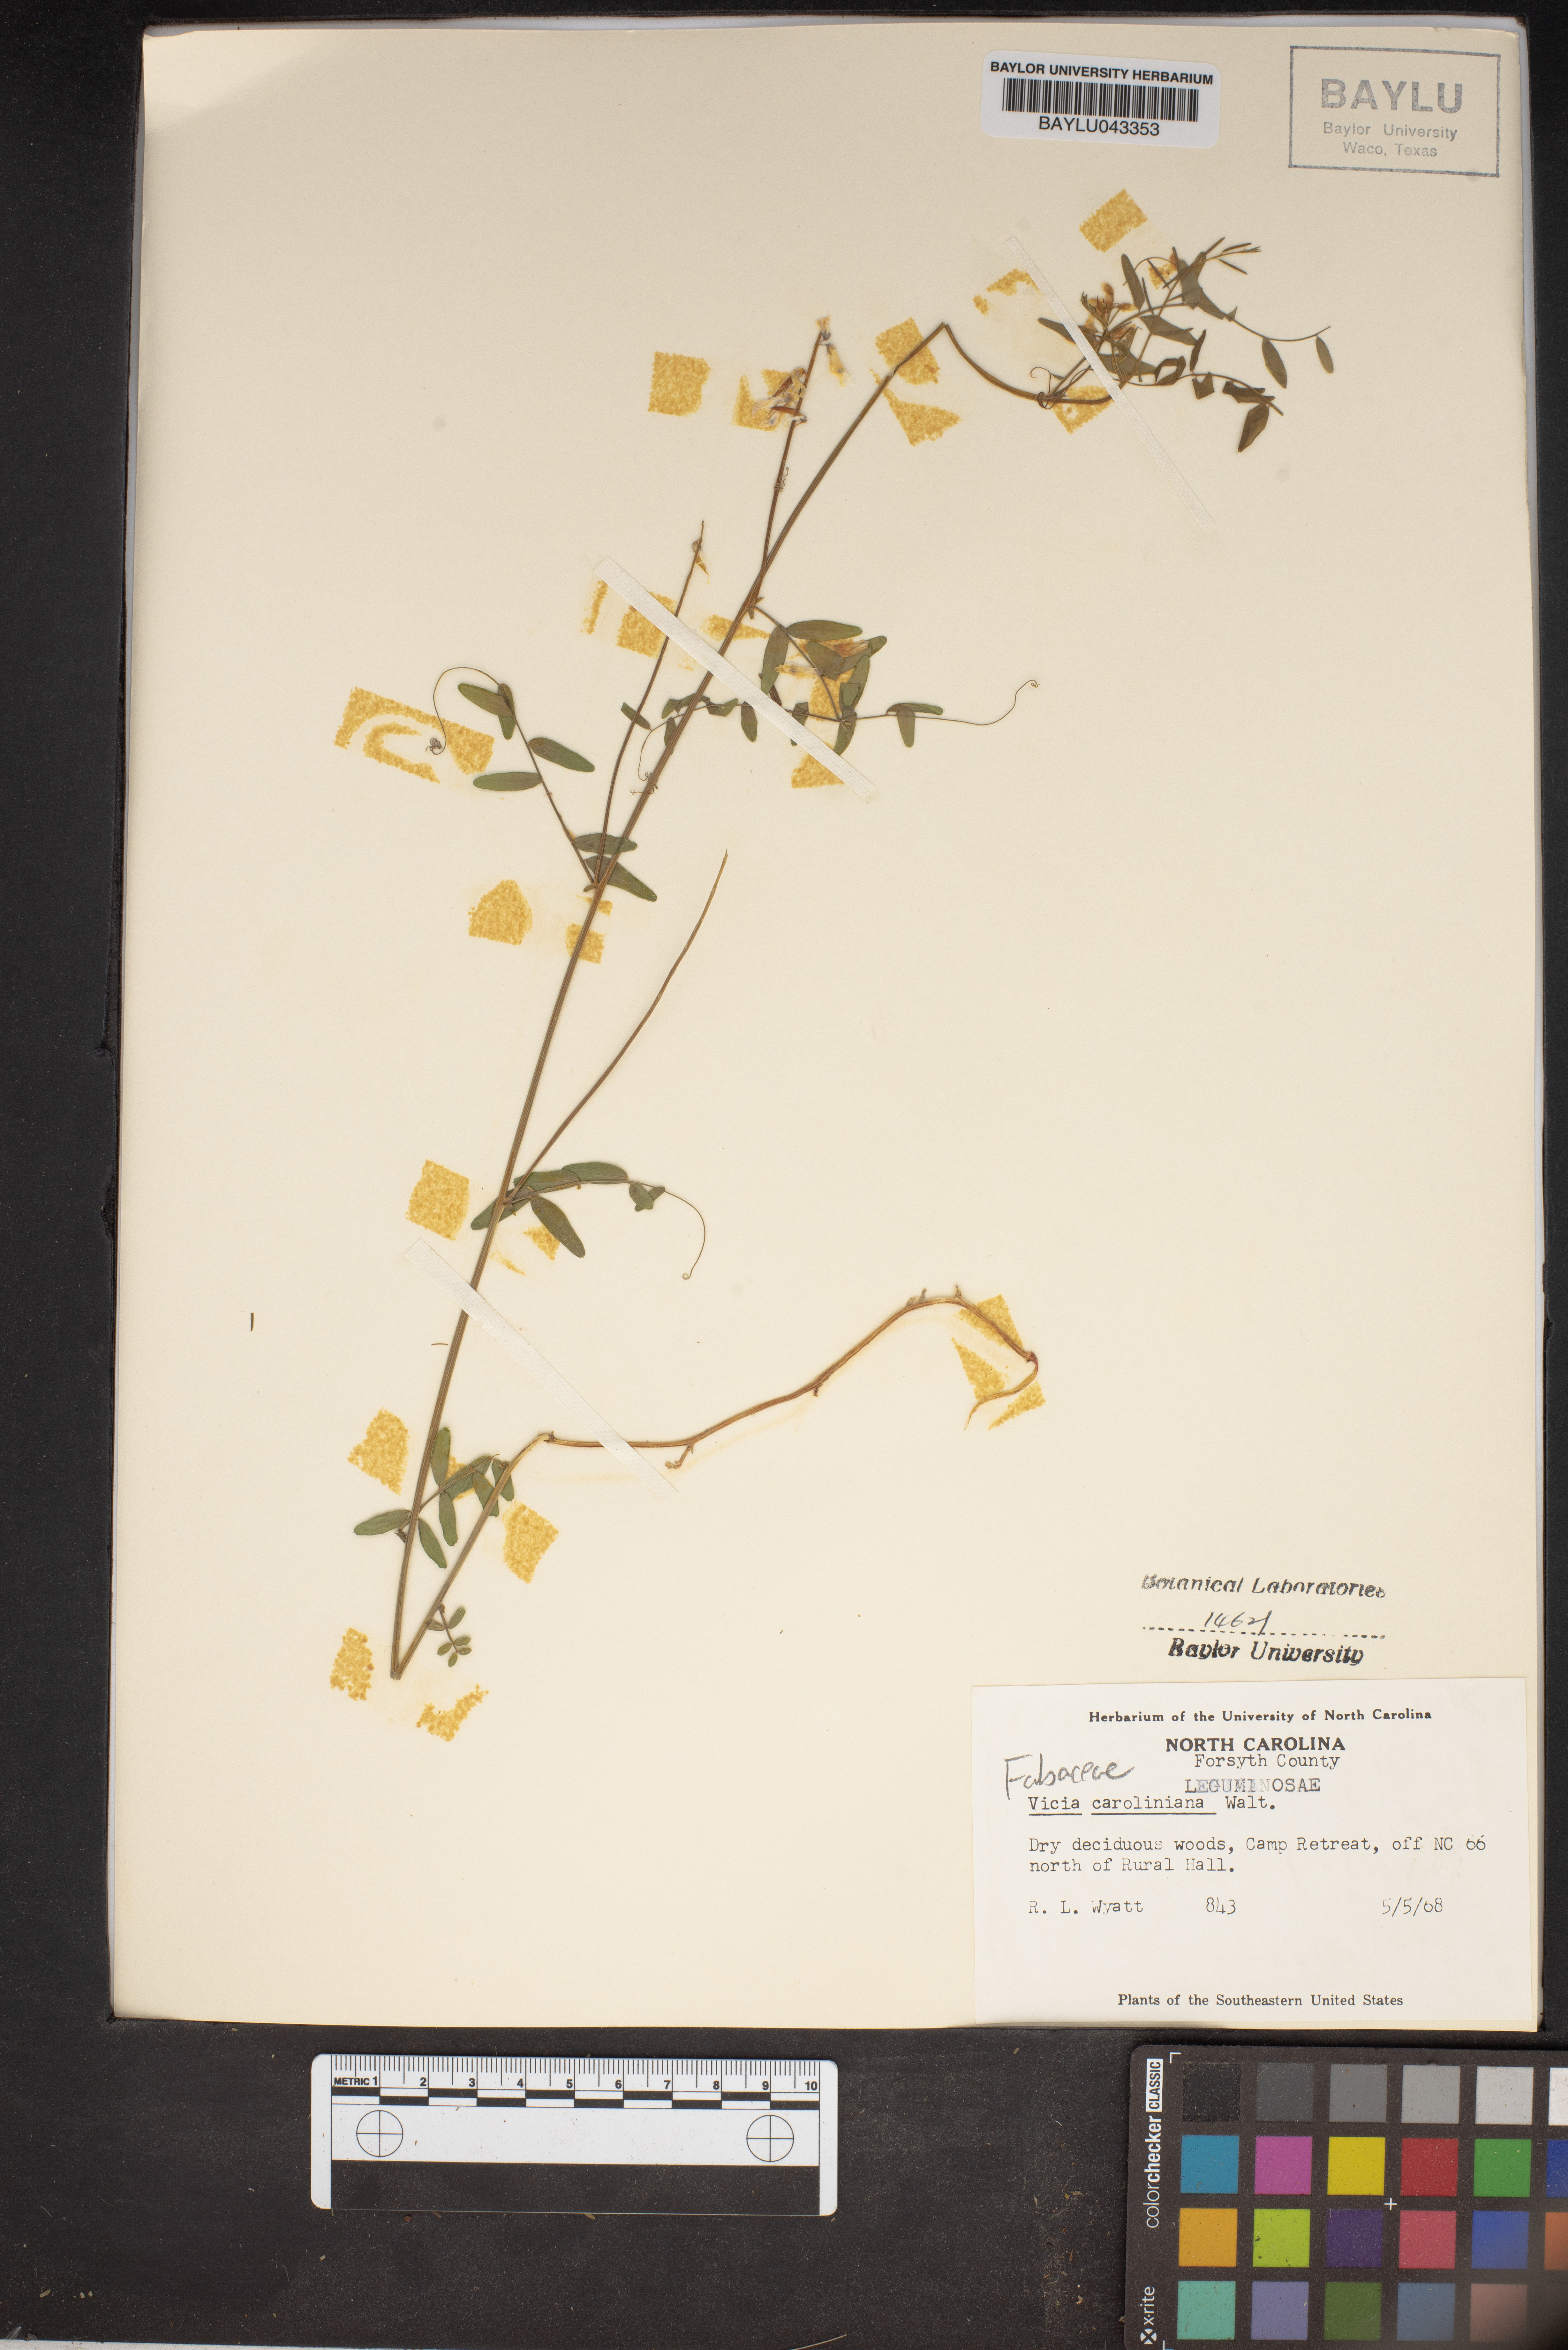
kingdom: Plantae
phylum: Tracheophyta
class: Magnoliopsida
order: Fabales
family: Fabaceae
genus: Vicia
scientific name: Vicia caroliniana
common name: Carolina vetch
